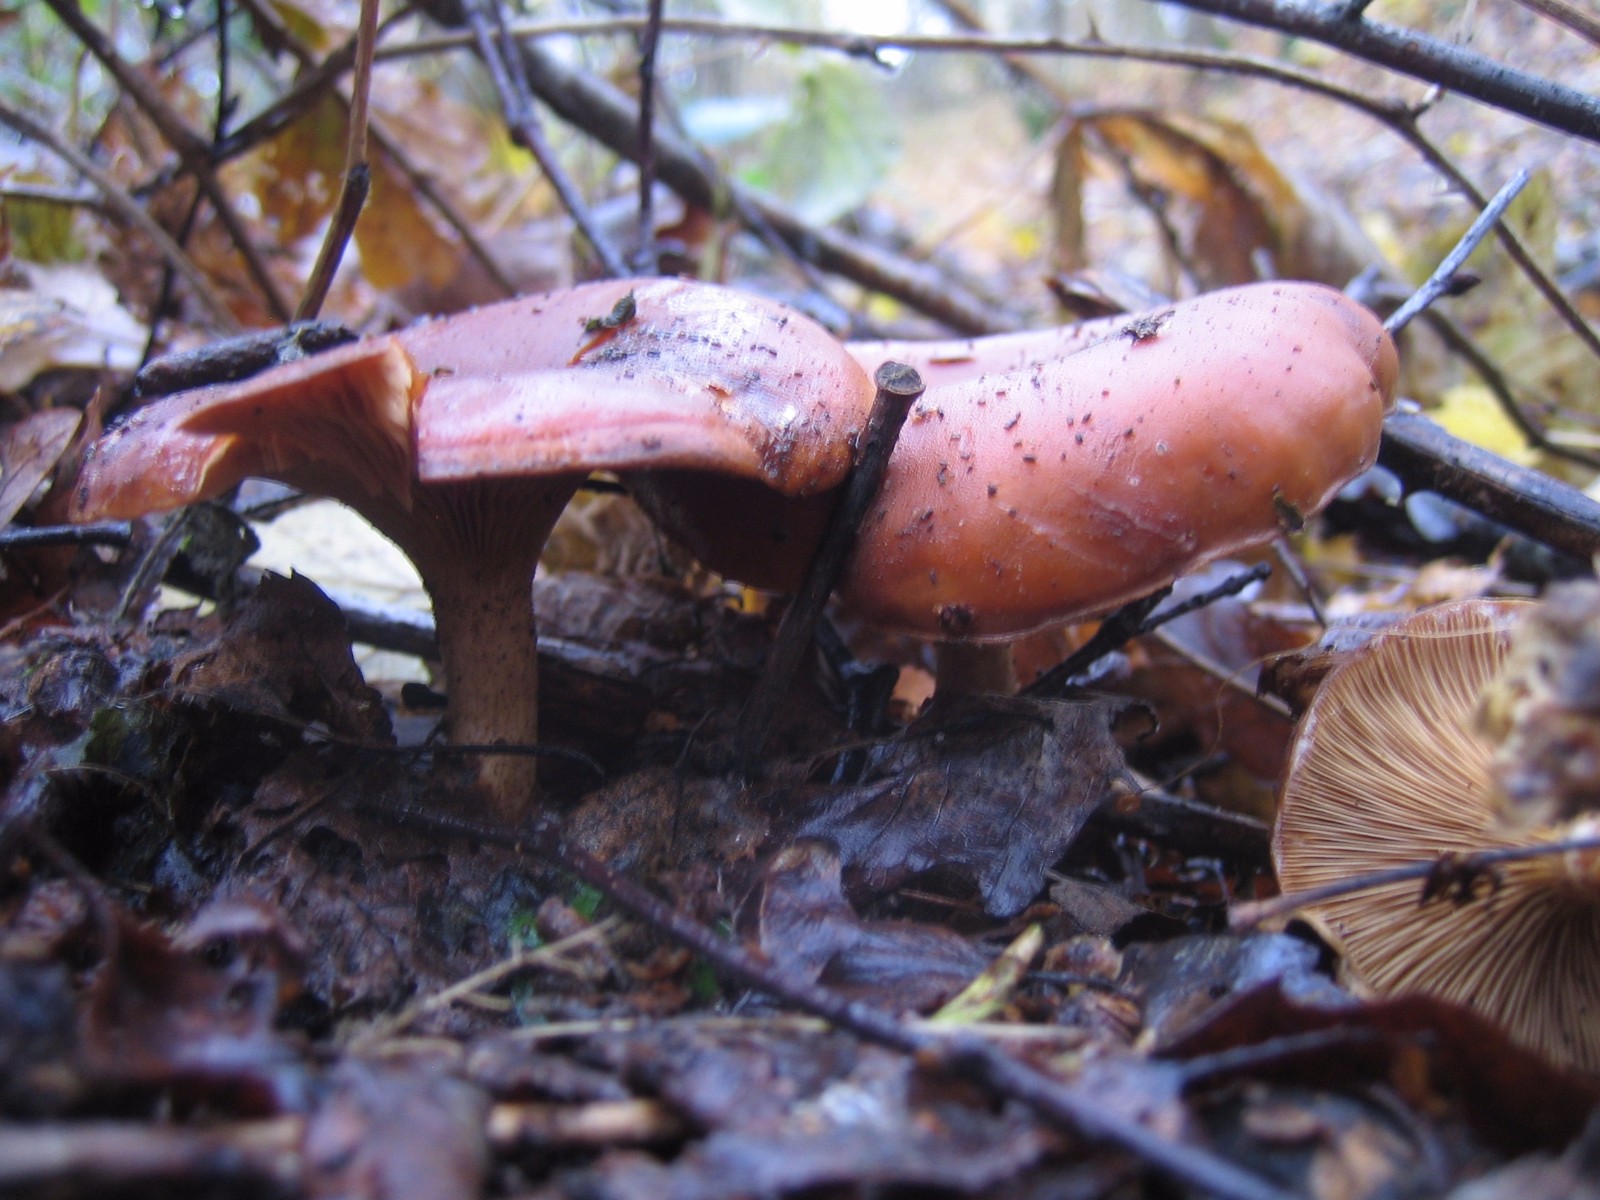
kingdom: Fungi
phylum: Basidiomycota
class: Agaricomycetes
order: Agaricales
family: Tricholomataceae
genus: Paralepista
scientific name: Paralepista flaccida
